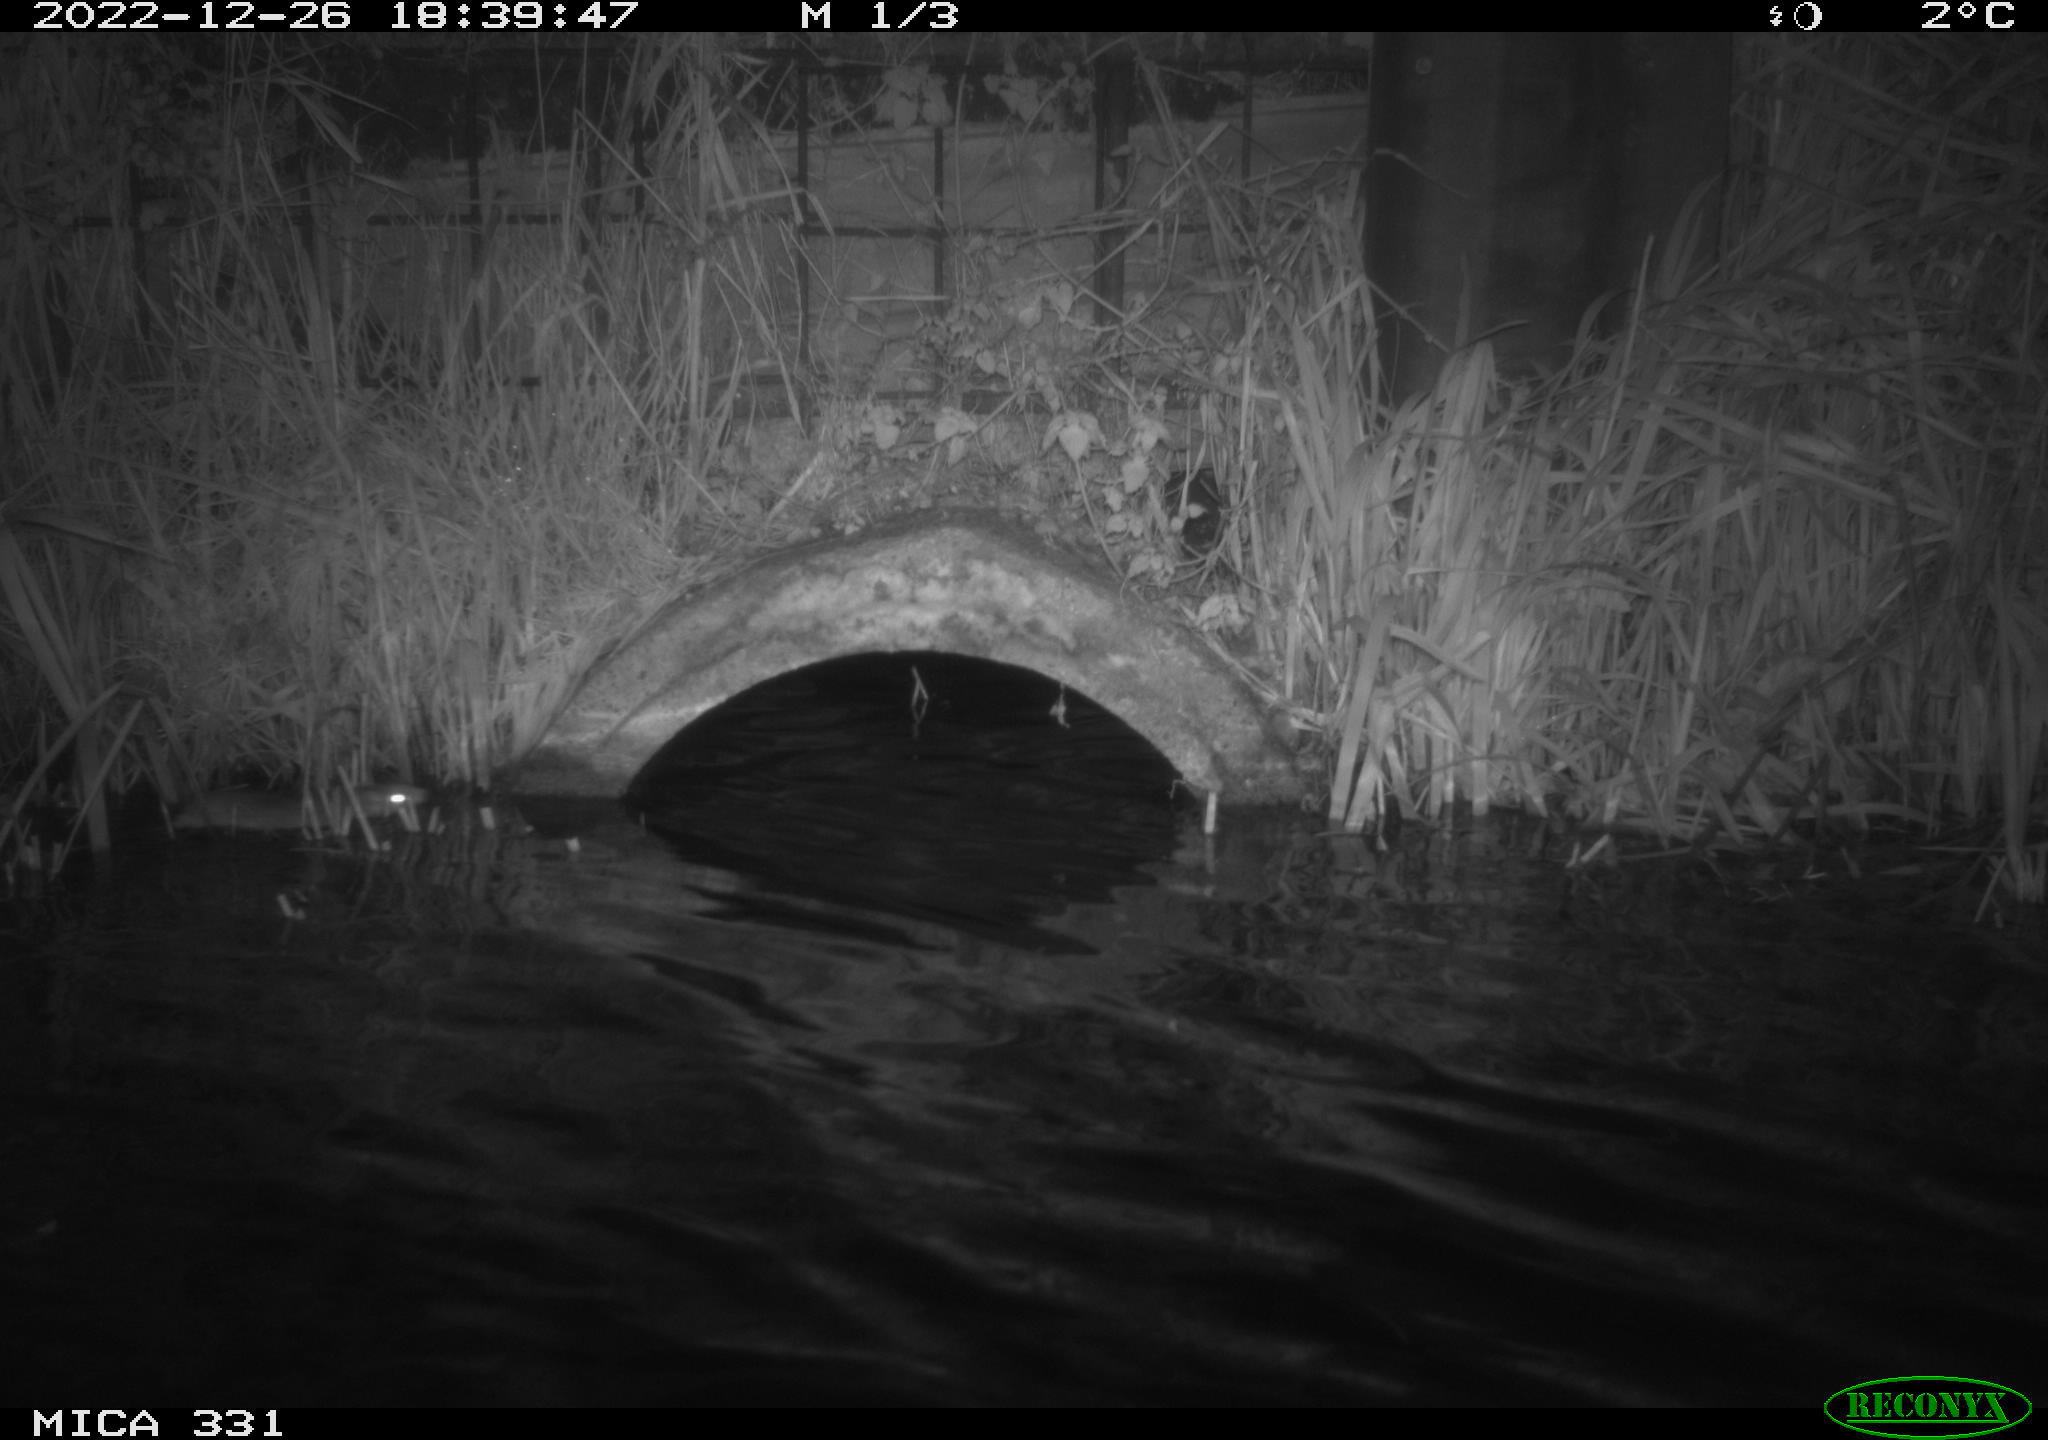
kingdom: Animalia
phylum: Chordata
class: Mammalia
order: Rodentia
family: Muridae
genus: Rattus
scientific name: Rattus norvegicus
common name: Brown rat
